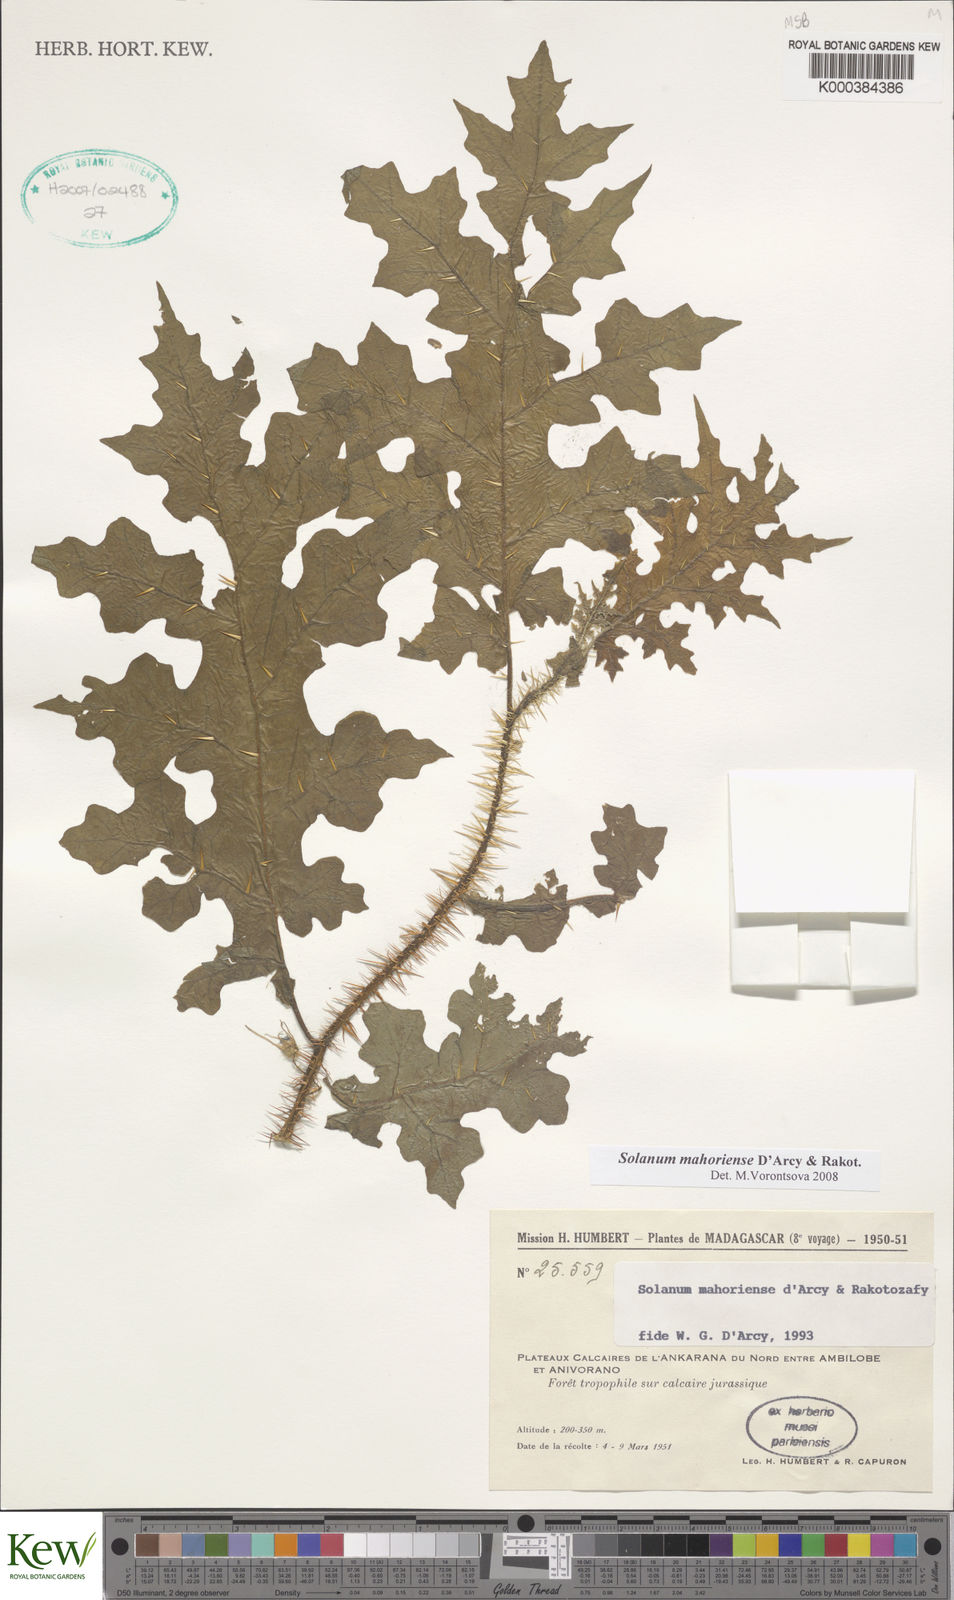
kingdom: Plantae
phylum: Tracheophyta
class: Magnoliopsida
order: Solanales
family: Solanaceae
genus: Solanum
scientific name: Solanum mahoriense
